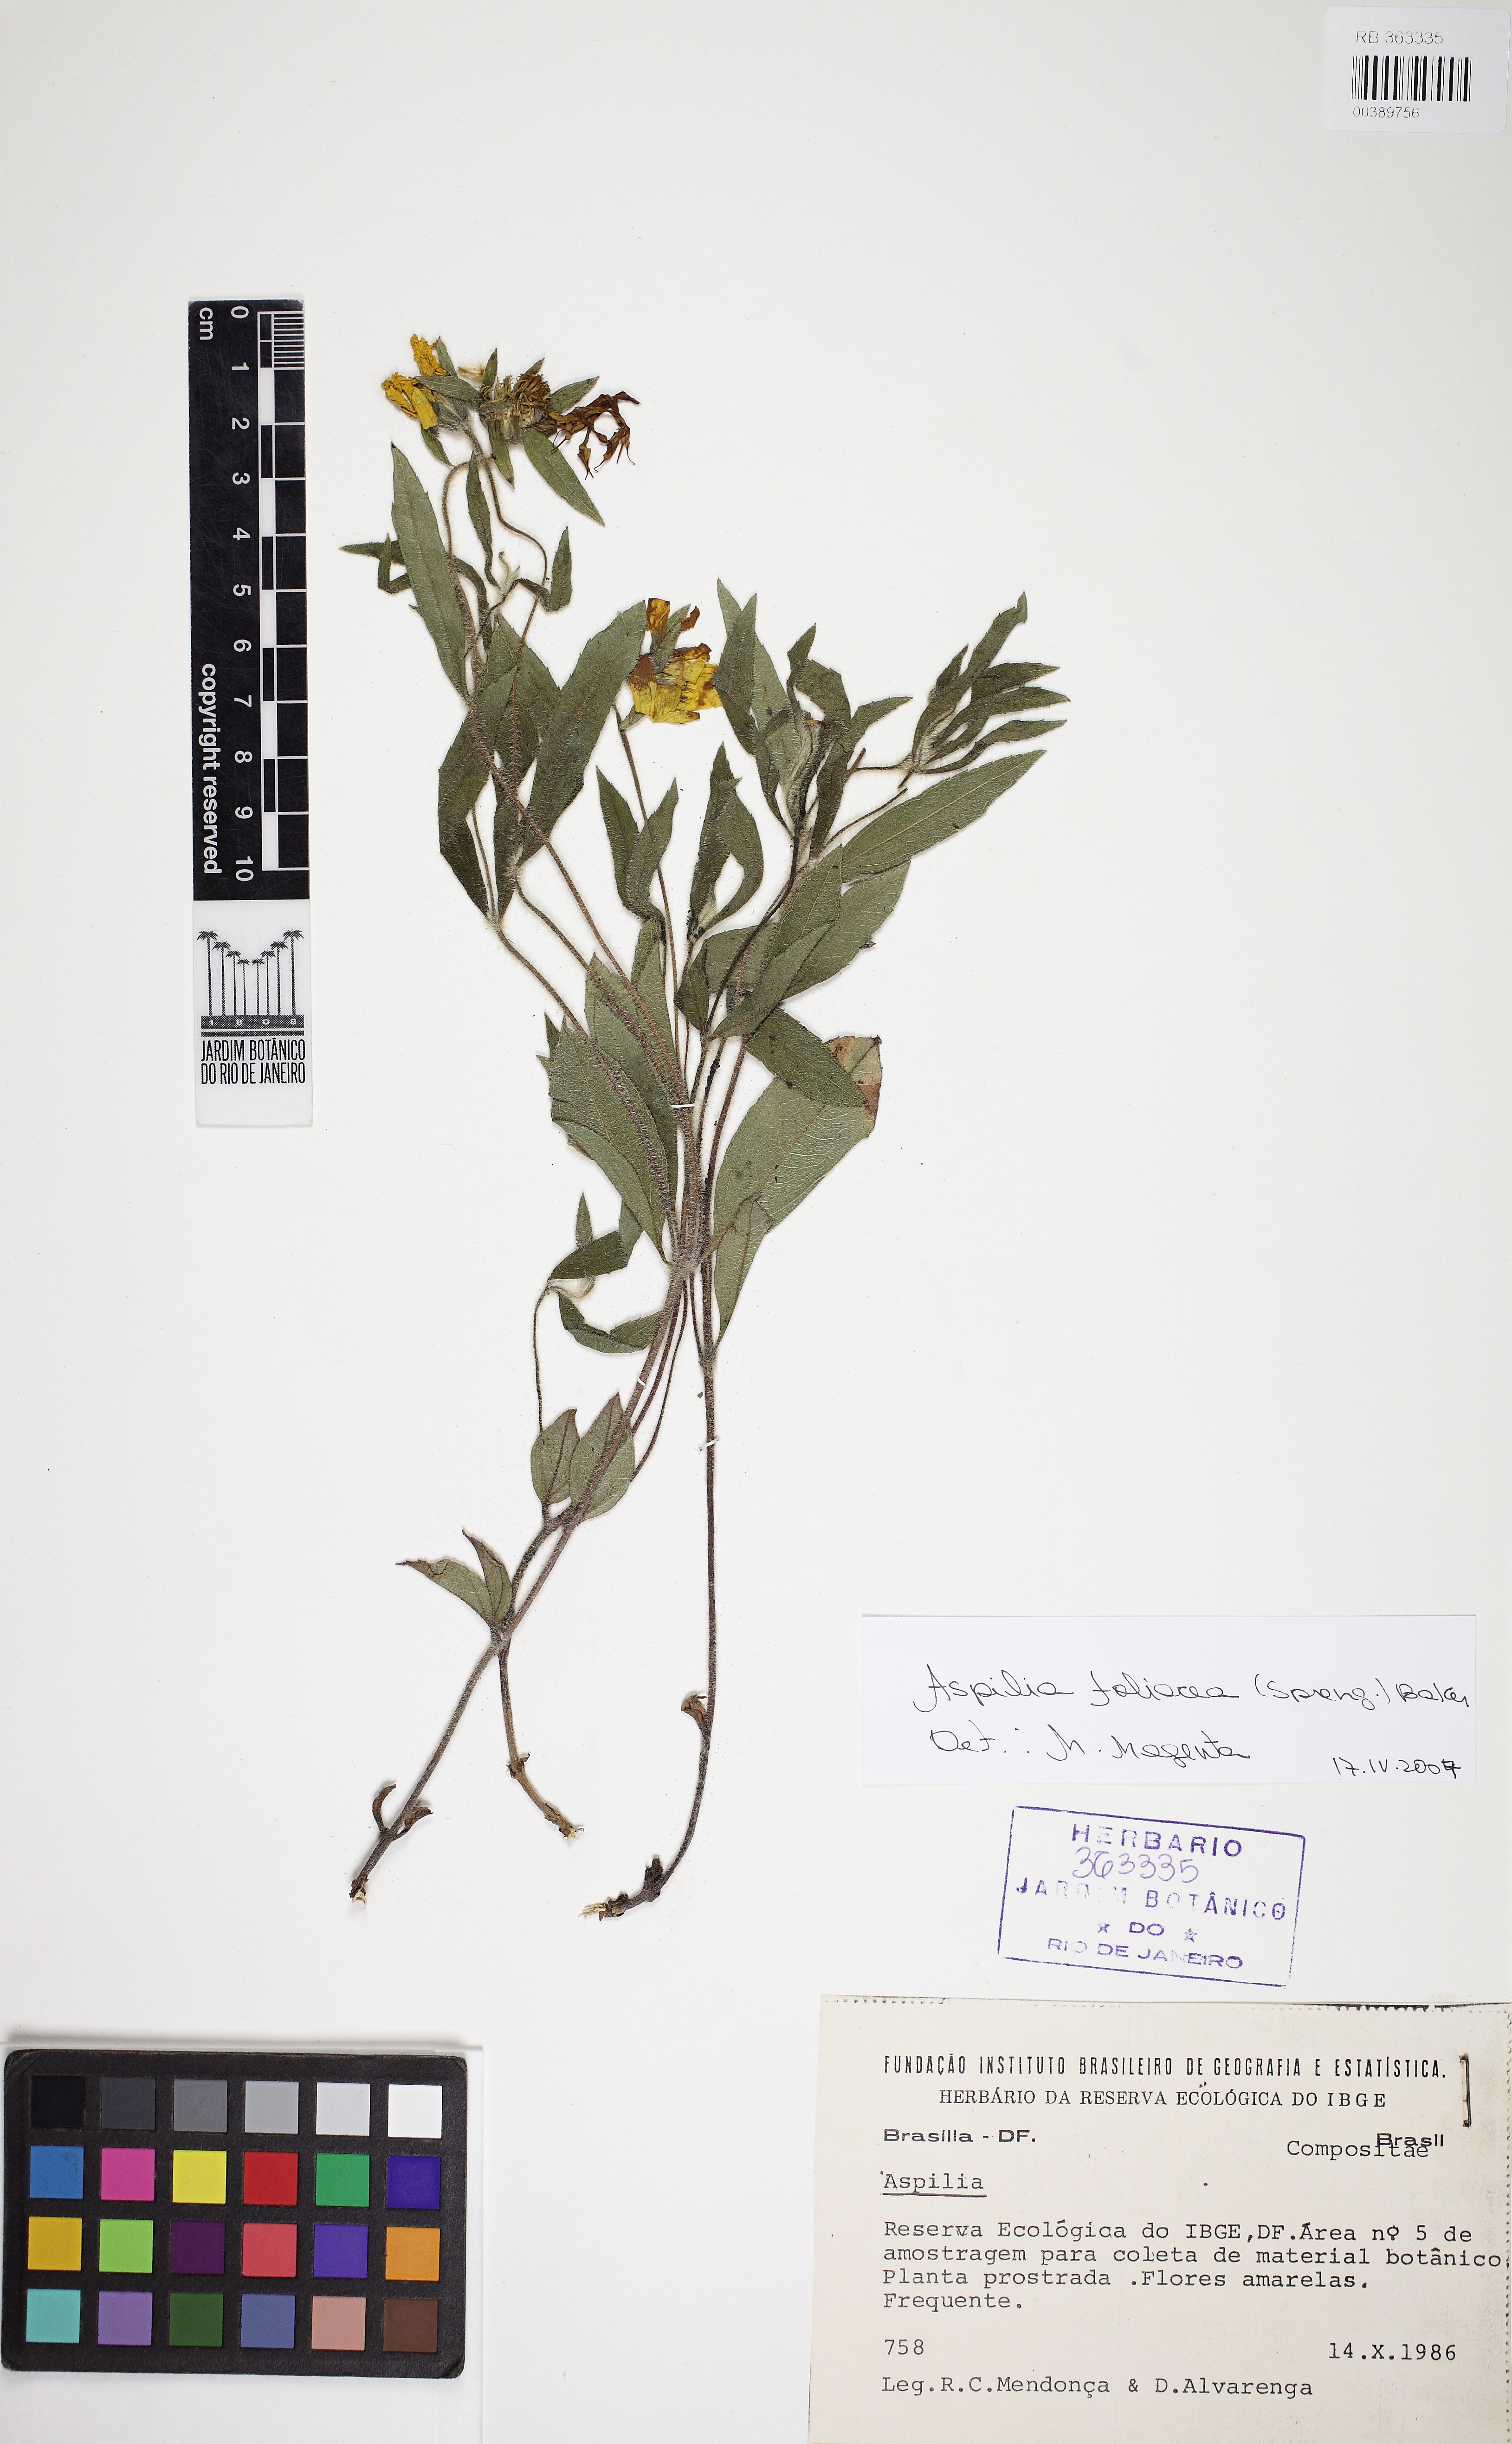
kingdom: Plantae
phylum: Tracheophyta
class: Magnoliopsida
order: Asterales
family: Asteraceae
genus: Wedelia
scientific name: Wedelia foliacea
